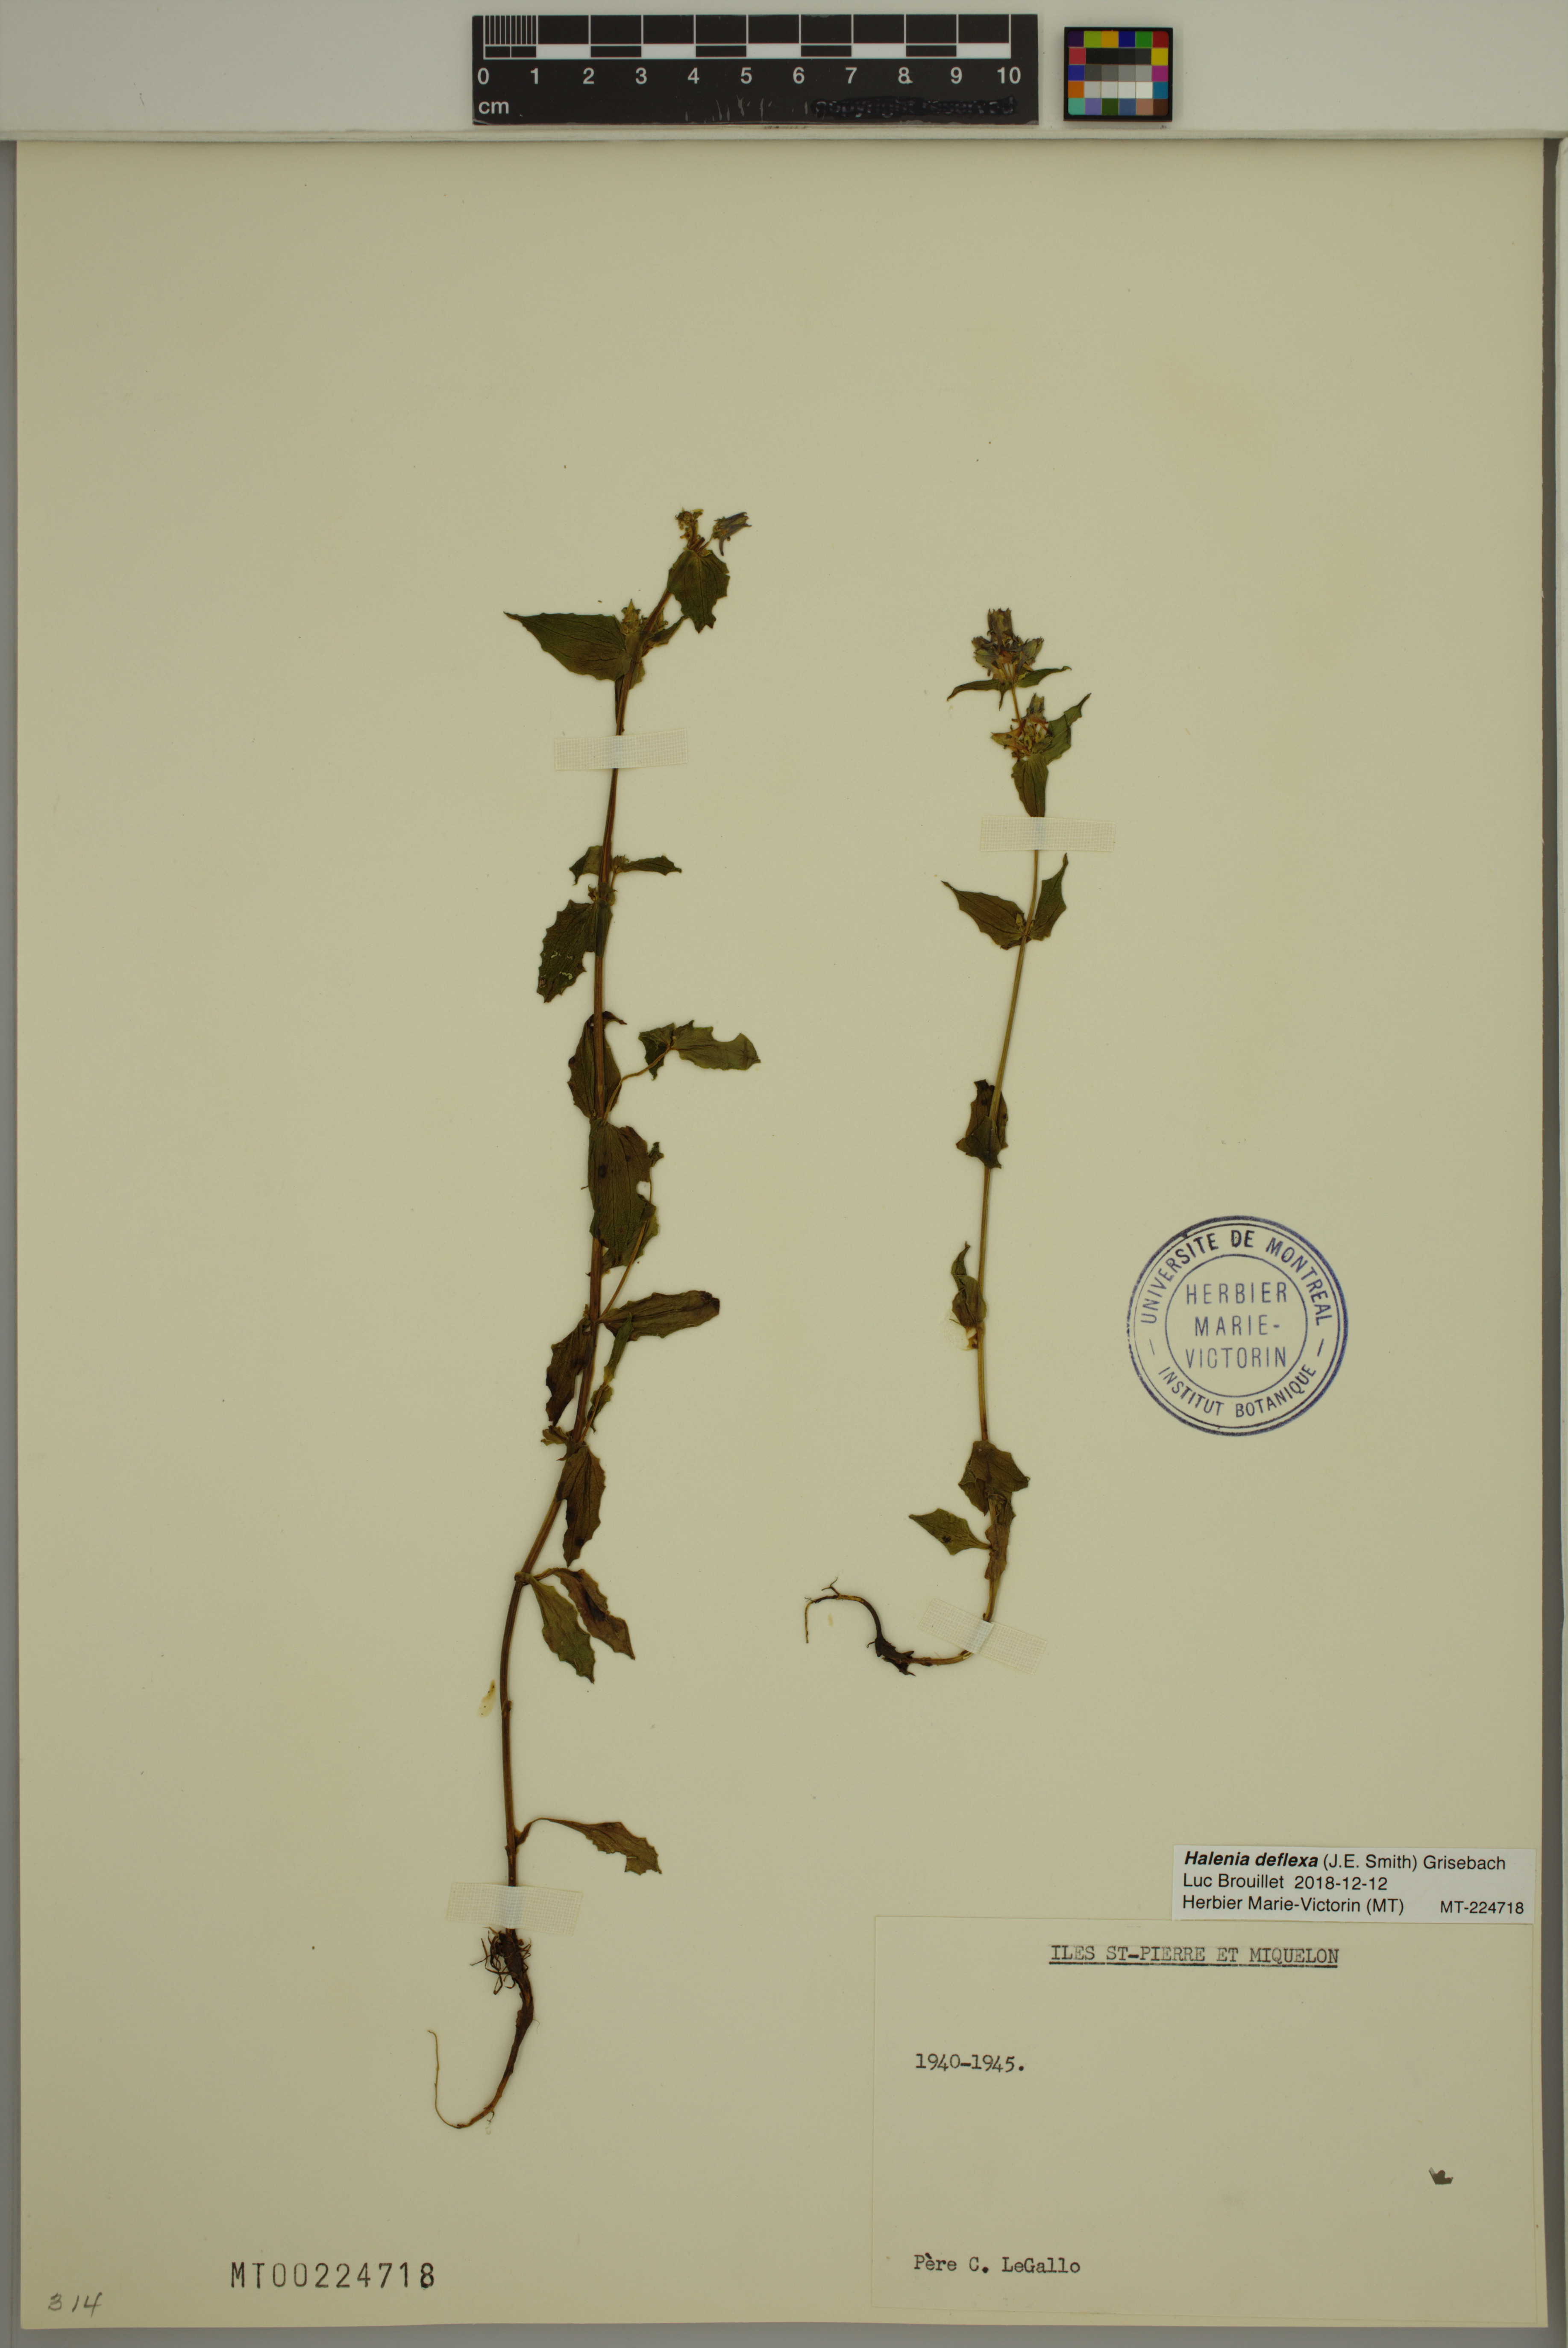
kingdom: Plantae
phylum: Tracheophyta
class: Magnoliopsida
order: Gentianales
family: Gentianaceae
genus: Halenia
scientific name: Halenia deflexa
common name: American spurred gentian
